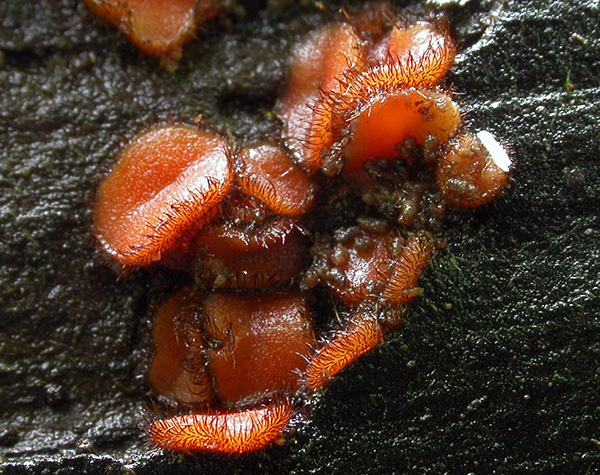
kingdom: Fungi
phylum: Ascomycota
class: Pezizomycetes
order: Pezizales
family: Pyronemataceae
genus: Scutellinia
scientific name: Scutellinia scutellata
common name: frynset skjoldbæger
